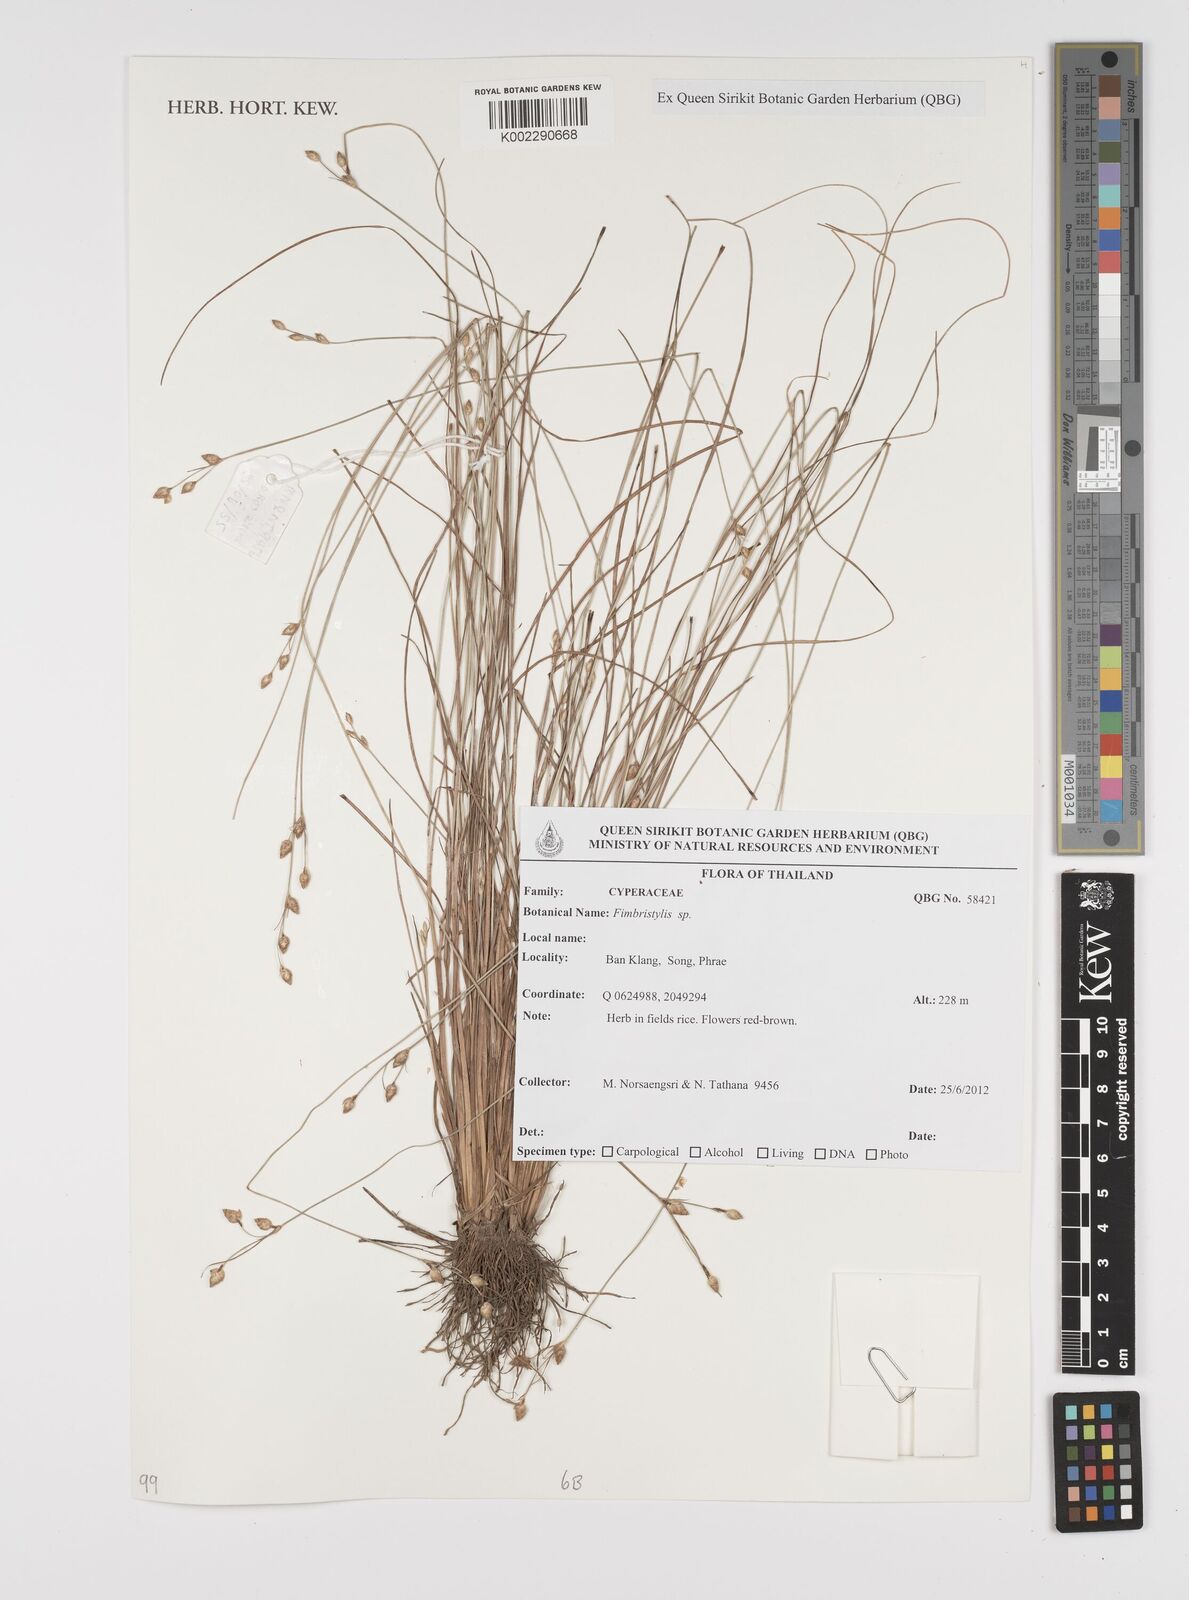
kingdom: Plantae
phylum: Tracheophyta
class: Liliopsida
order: Poales
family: Cyperaceae
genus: Fimbristylis
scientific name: Fimbristylis
